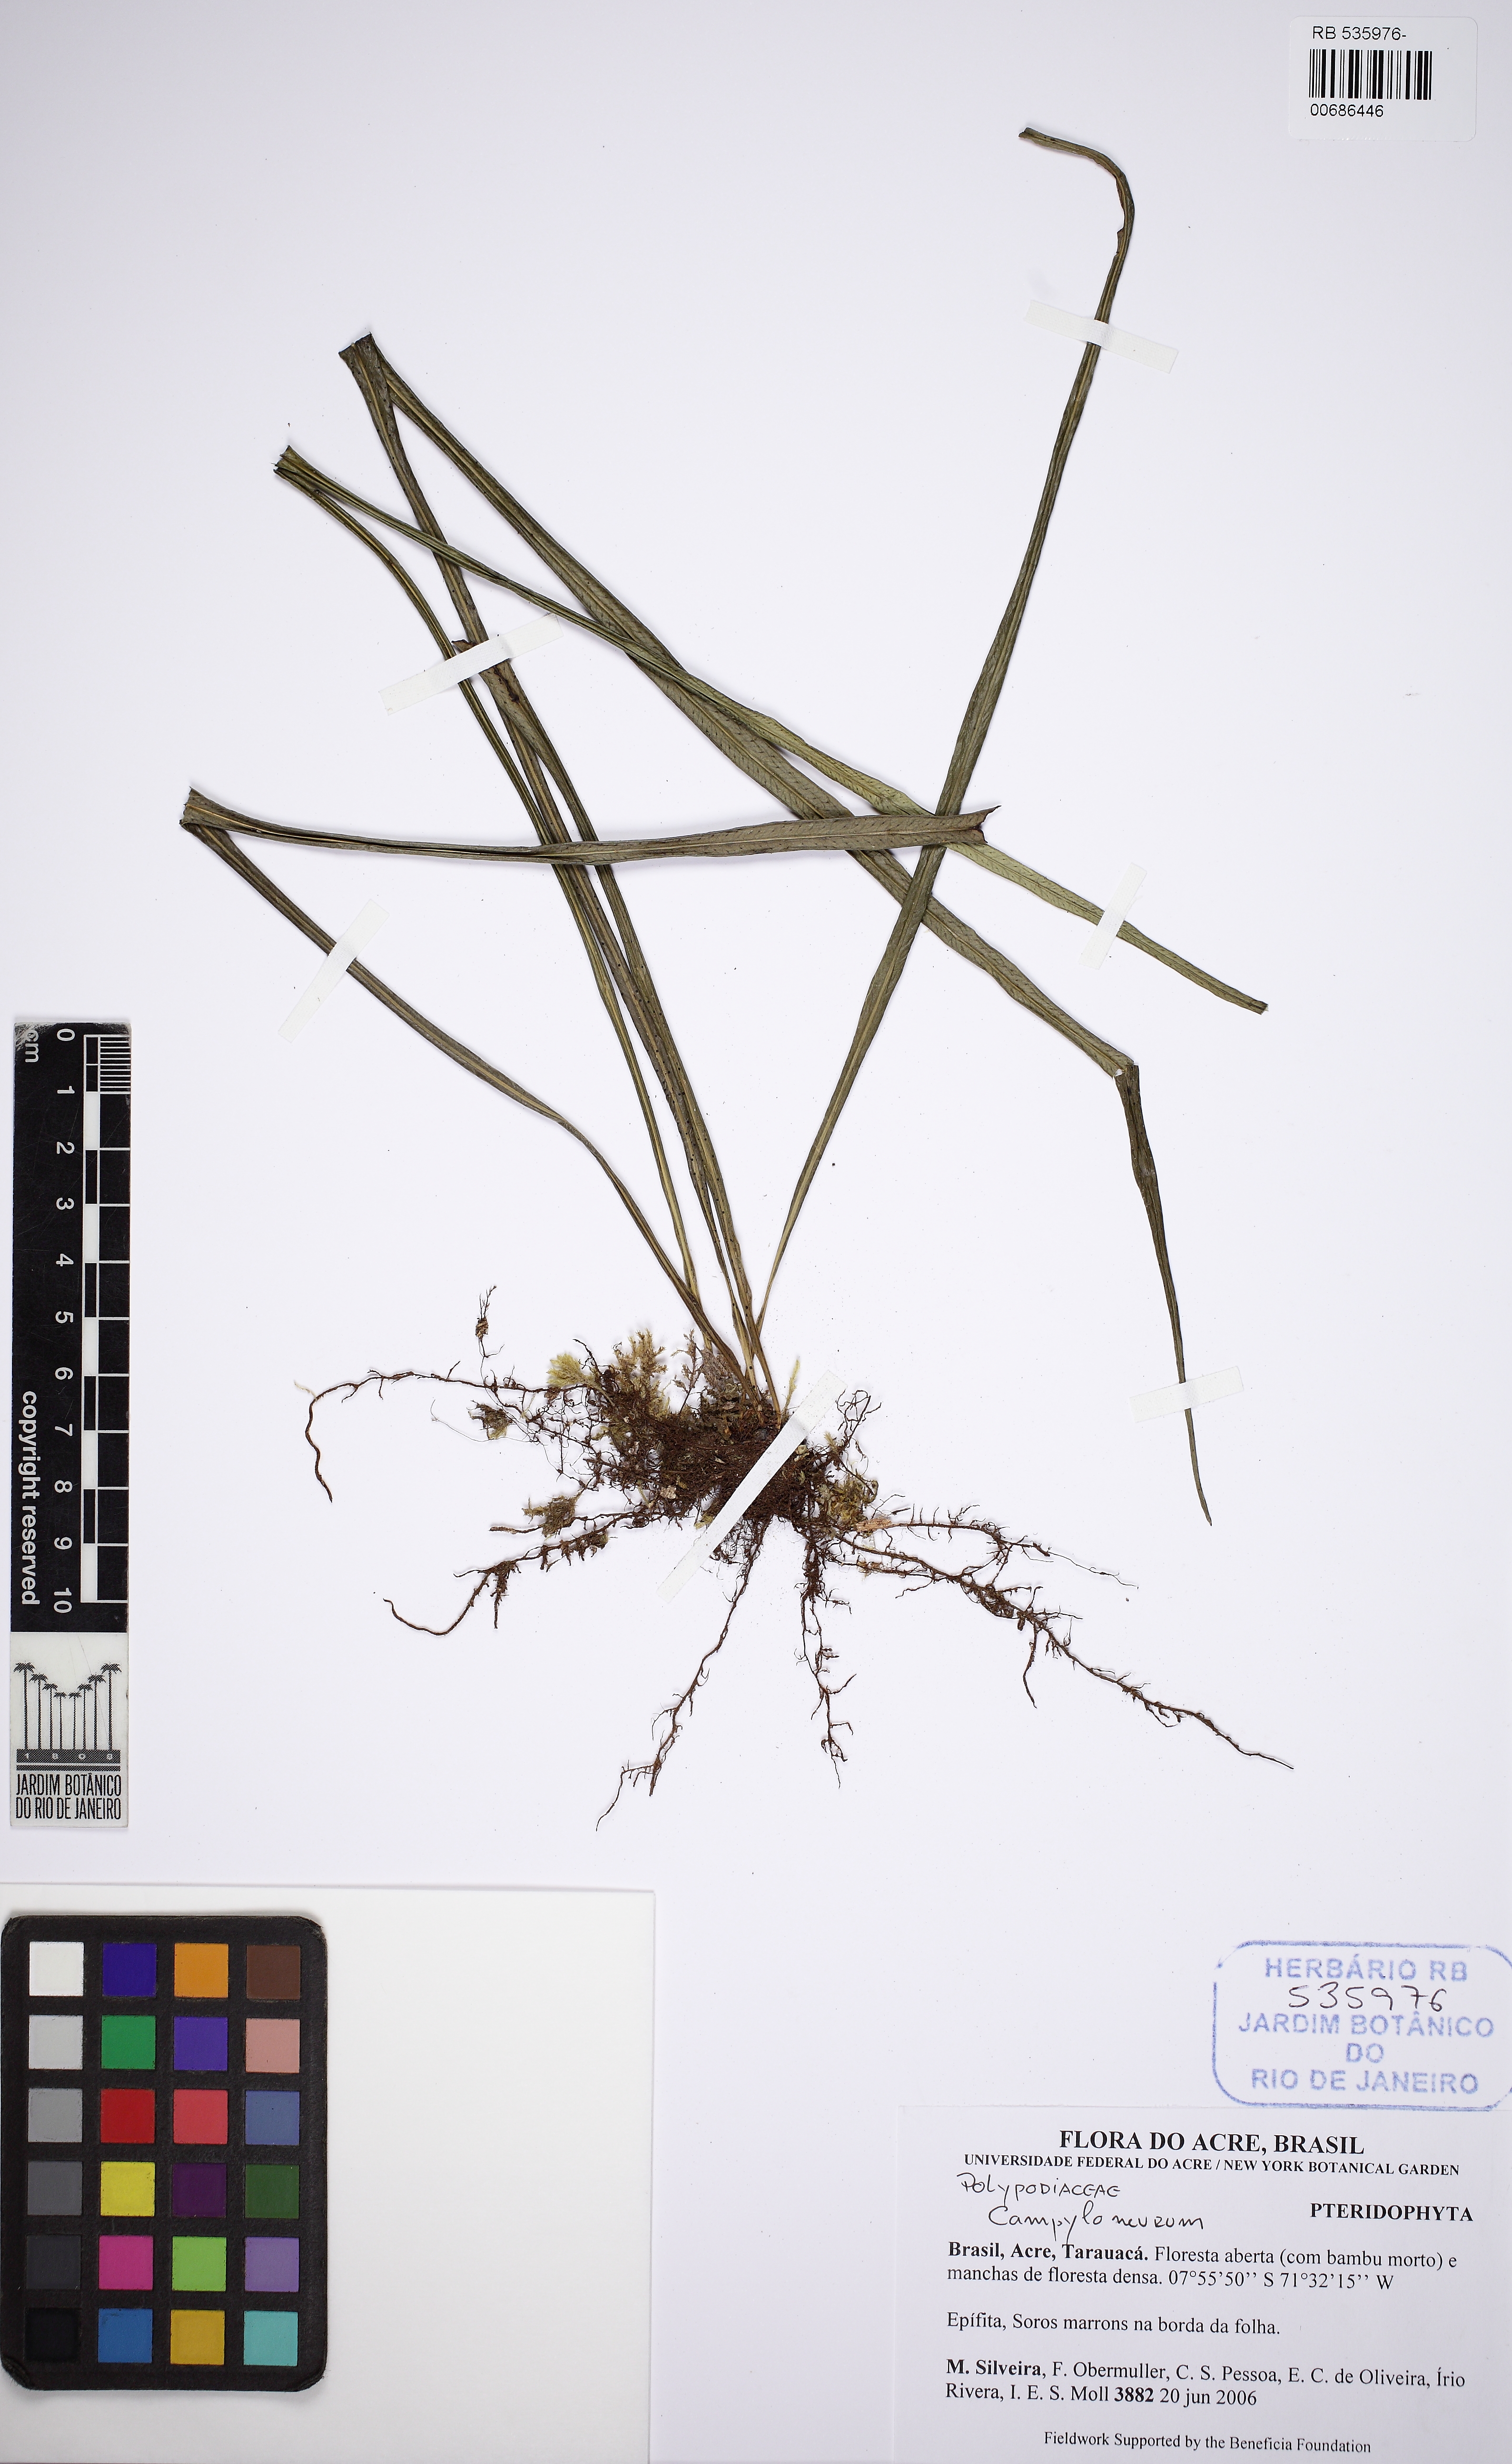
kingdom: Plantae
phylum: Tracheophyta
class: Polypodiopsida
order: Polypodiales
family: Polypodiaceae
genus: Campyloneurum
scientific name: Campyloneurum angustifolium
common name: Narrow-leaf strap fern
